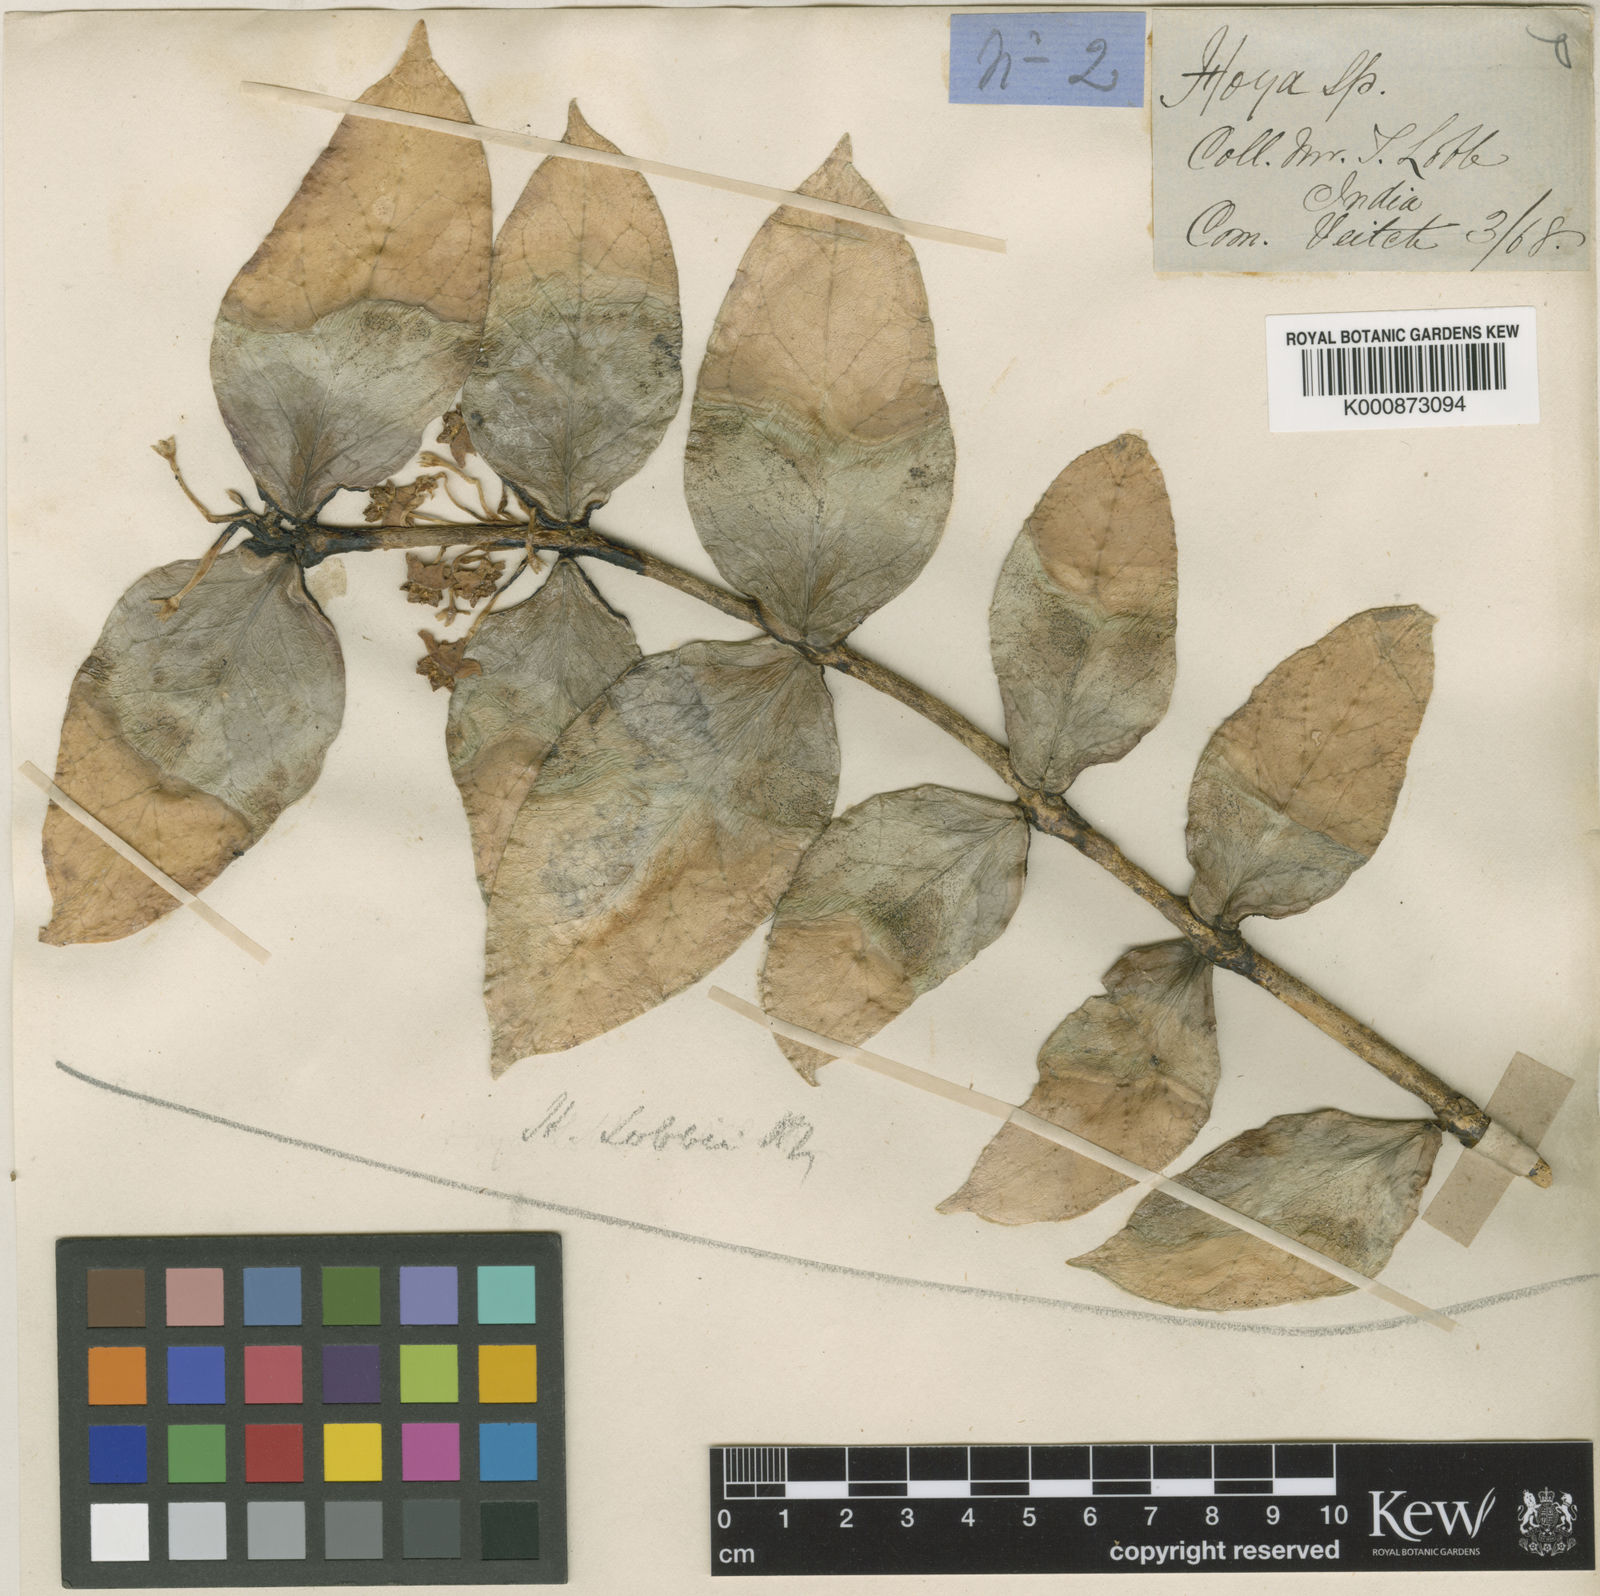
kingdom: Plantae
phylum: Tracheophyta
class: Magnoliopsida
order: Gentianales
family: Apocynaceae
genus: Hoya
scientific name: Hoya lobbii
